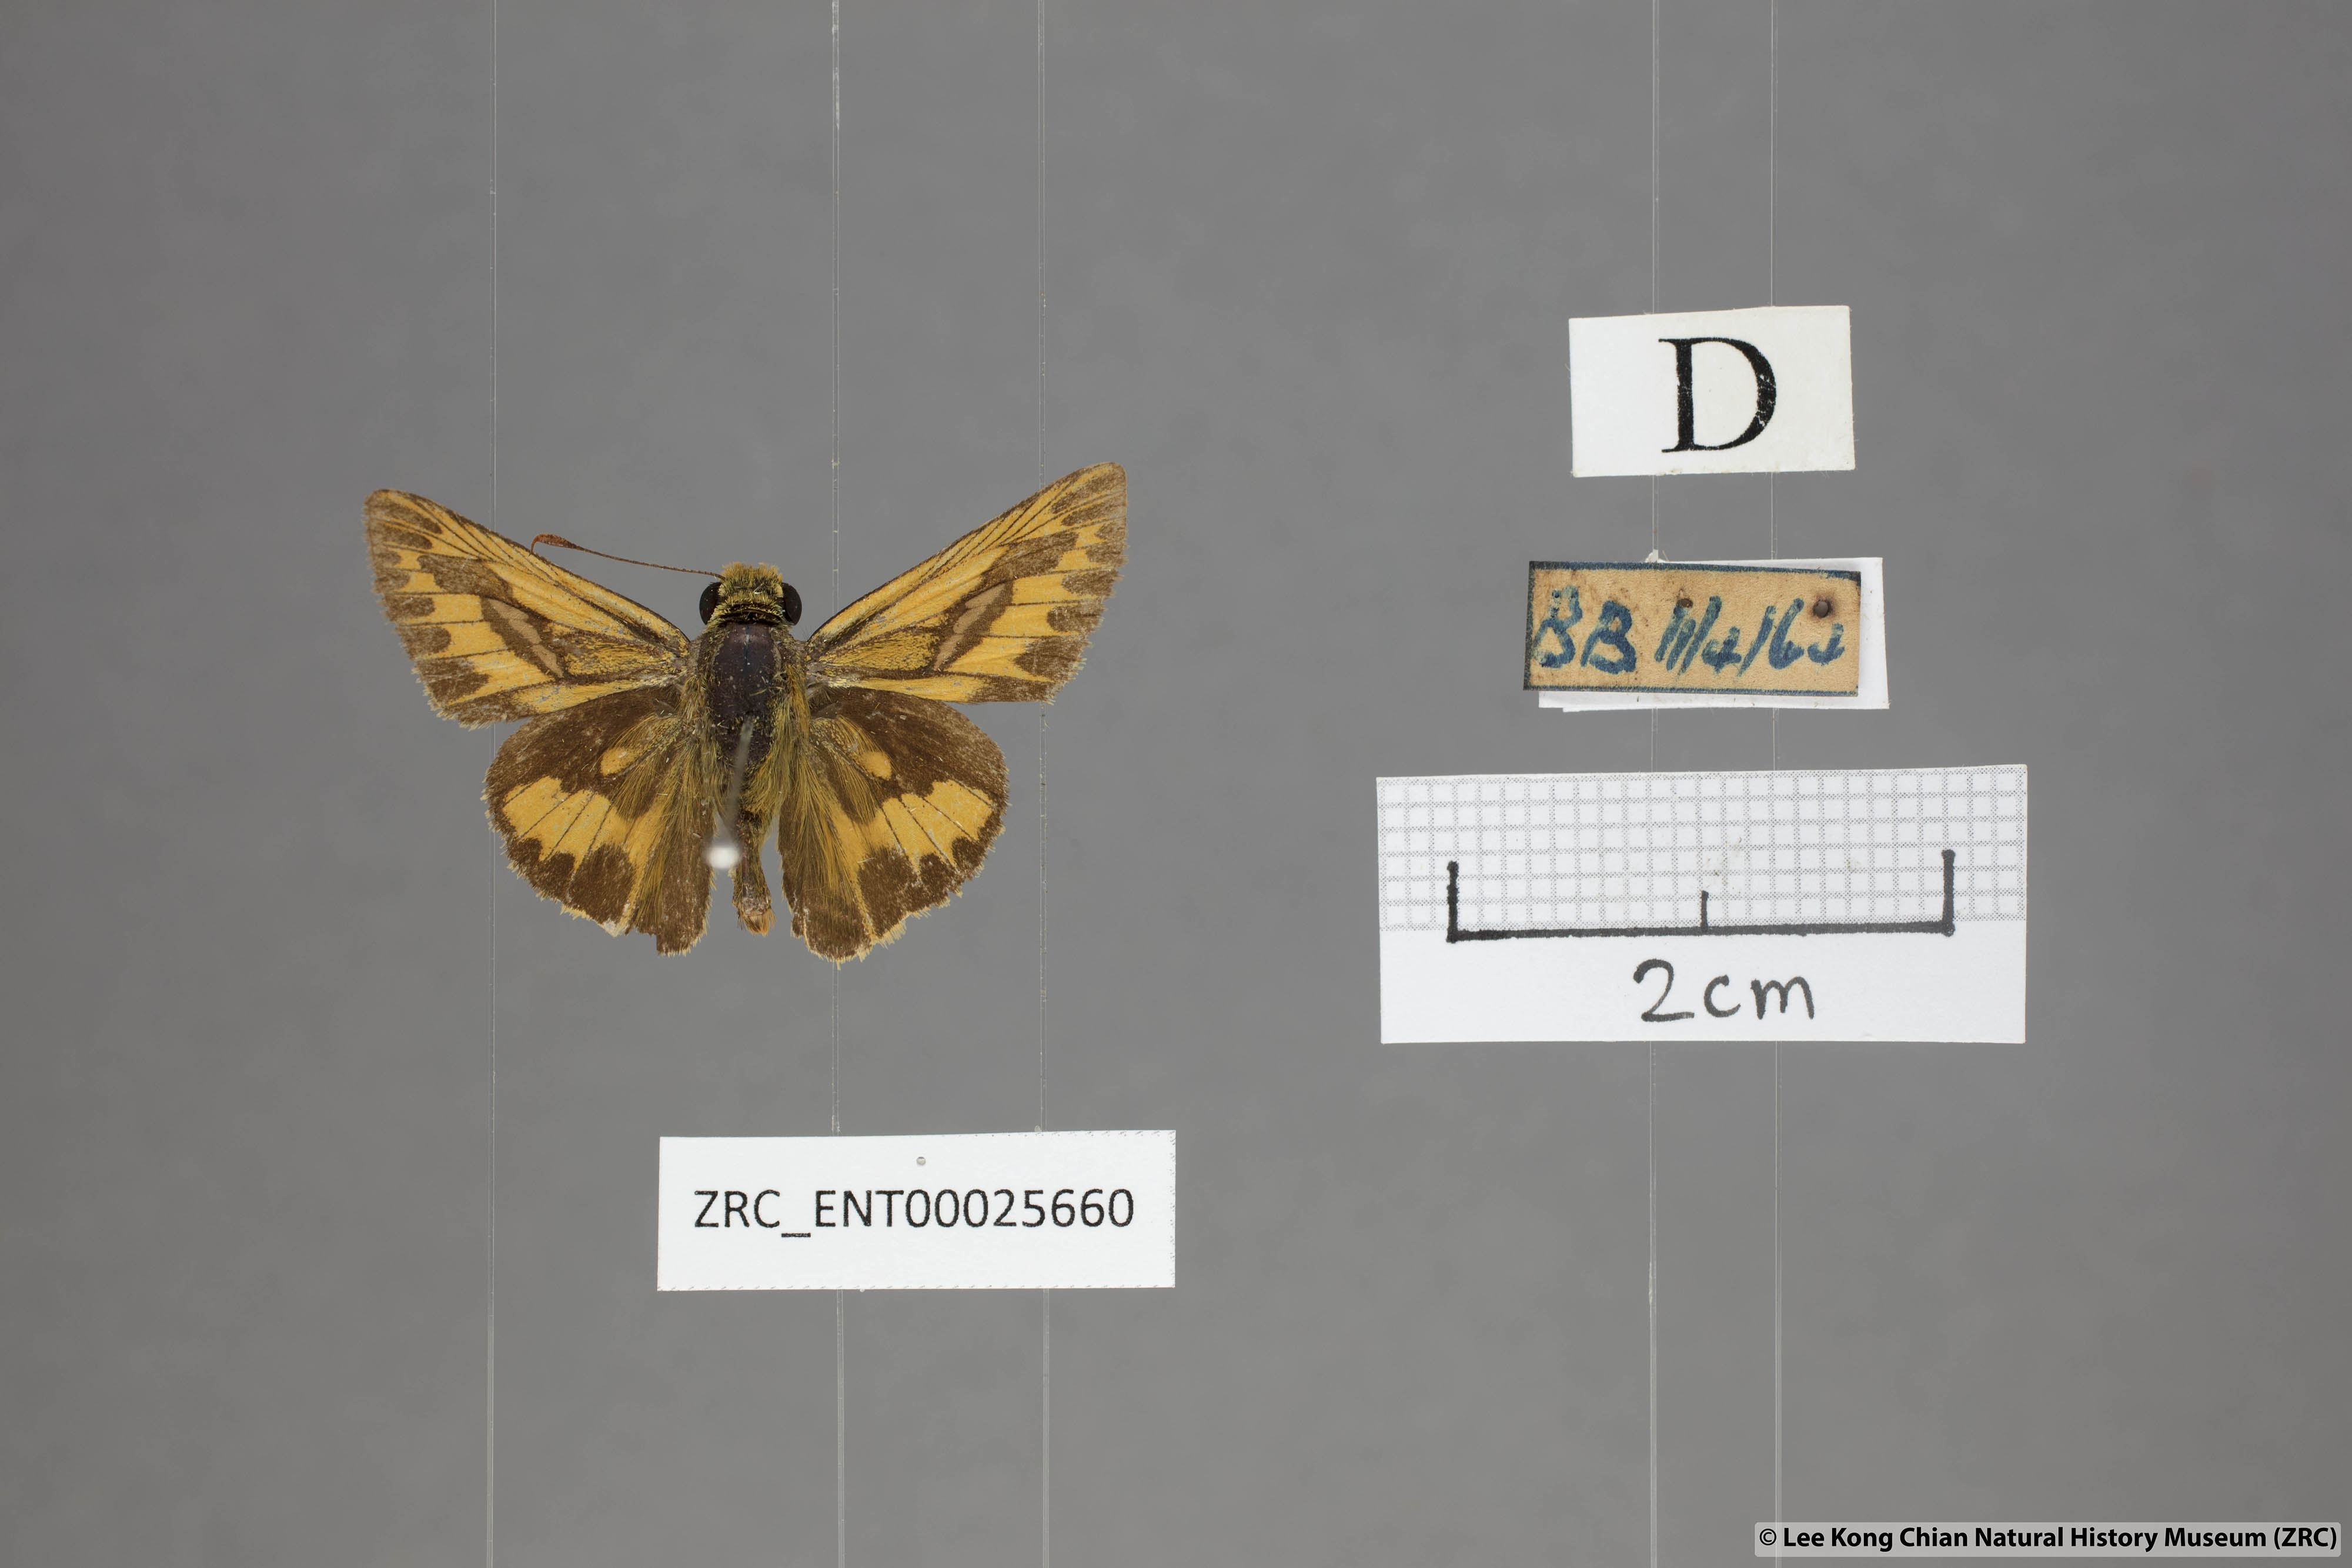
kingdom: Animalia
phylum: Arthropoda
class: Insecta
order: Lepidoptera
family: Hesperiidae
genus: Telicota
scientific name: Telicota colon
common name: Pale palm dart
